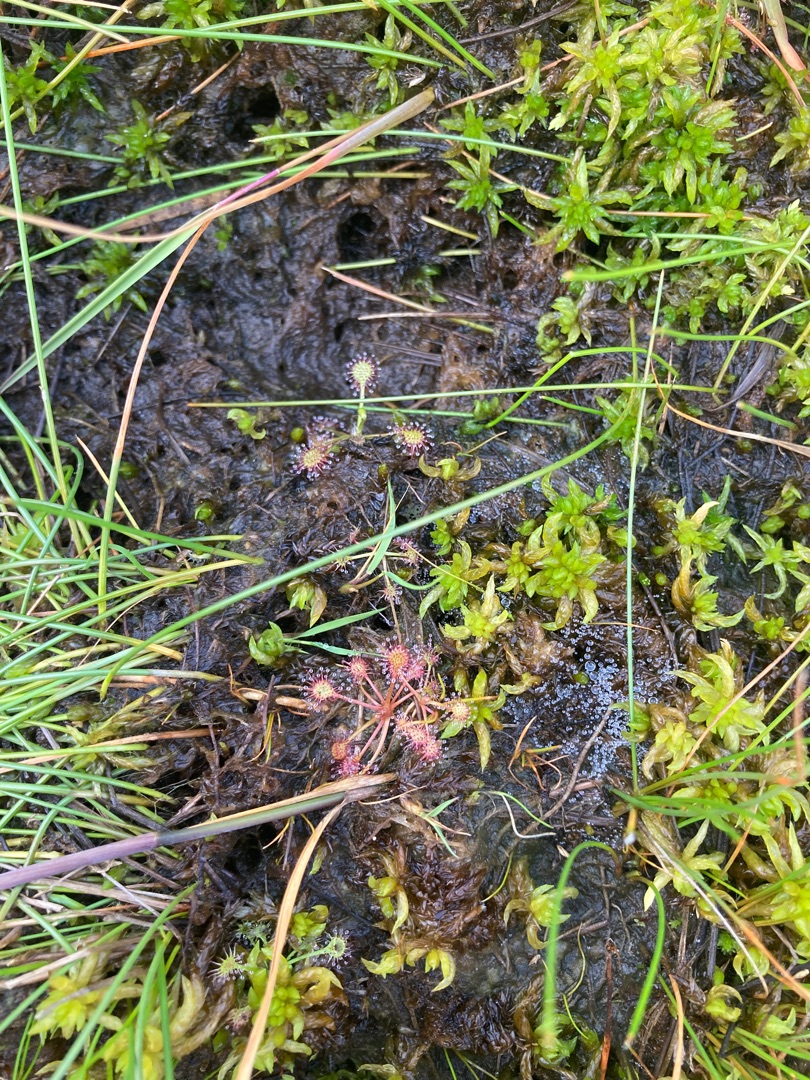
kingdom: Plantae
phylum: Tracheophyta
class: Magnoliopsida
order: Caryophyllales
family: Droseraceae
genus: Drosera
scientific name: Drosera rotundifolia
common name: Rundbladet soldug
